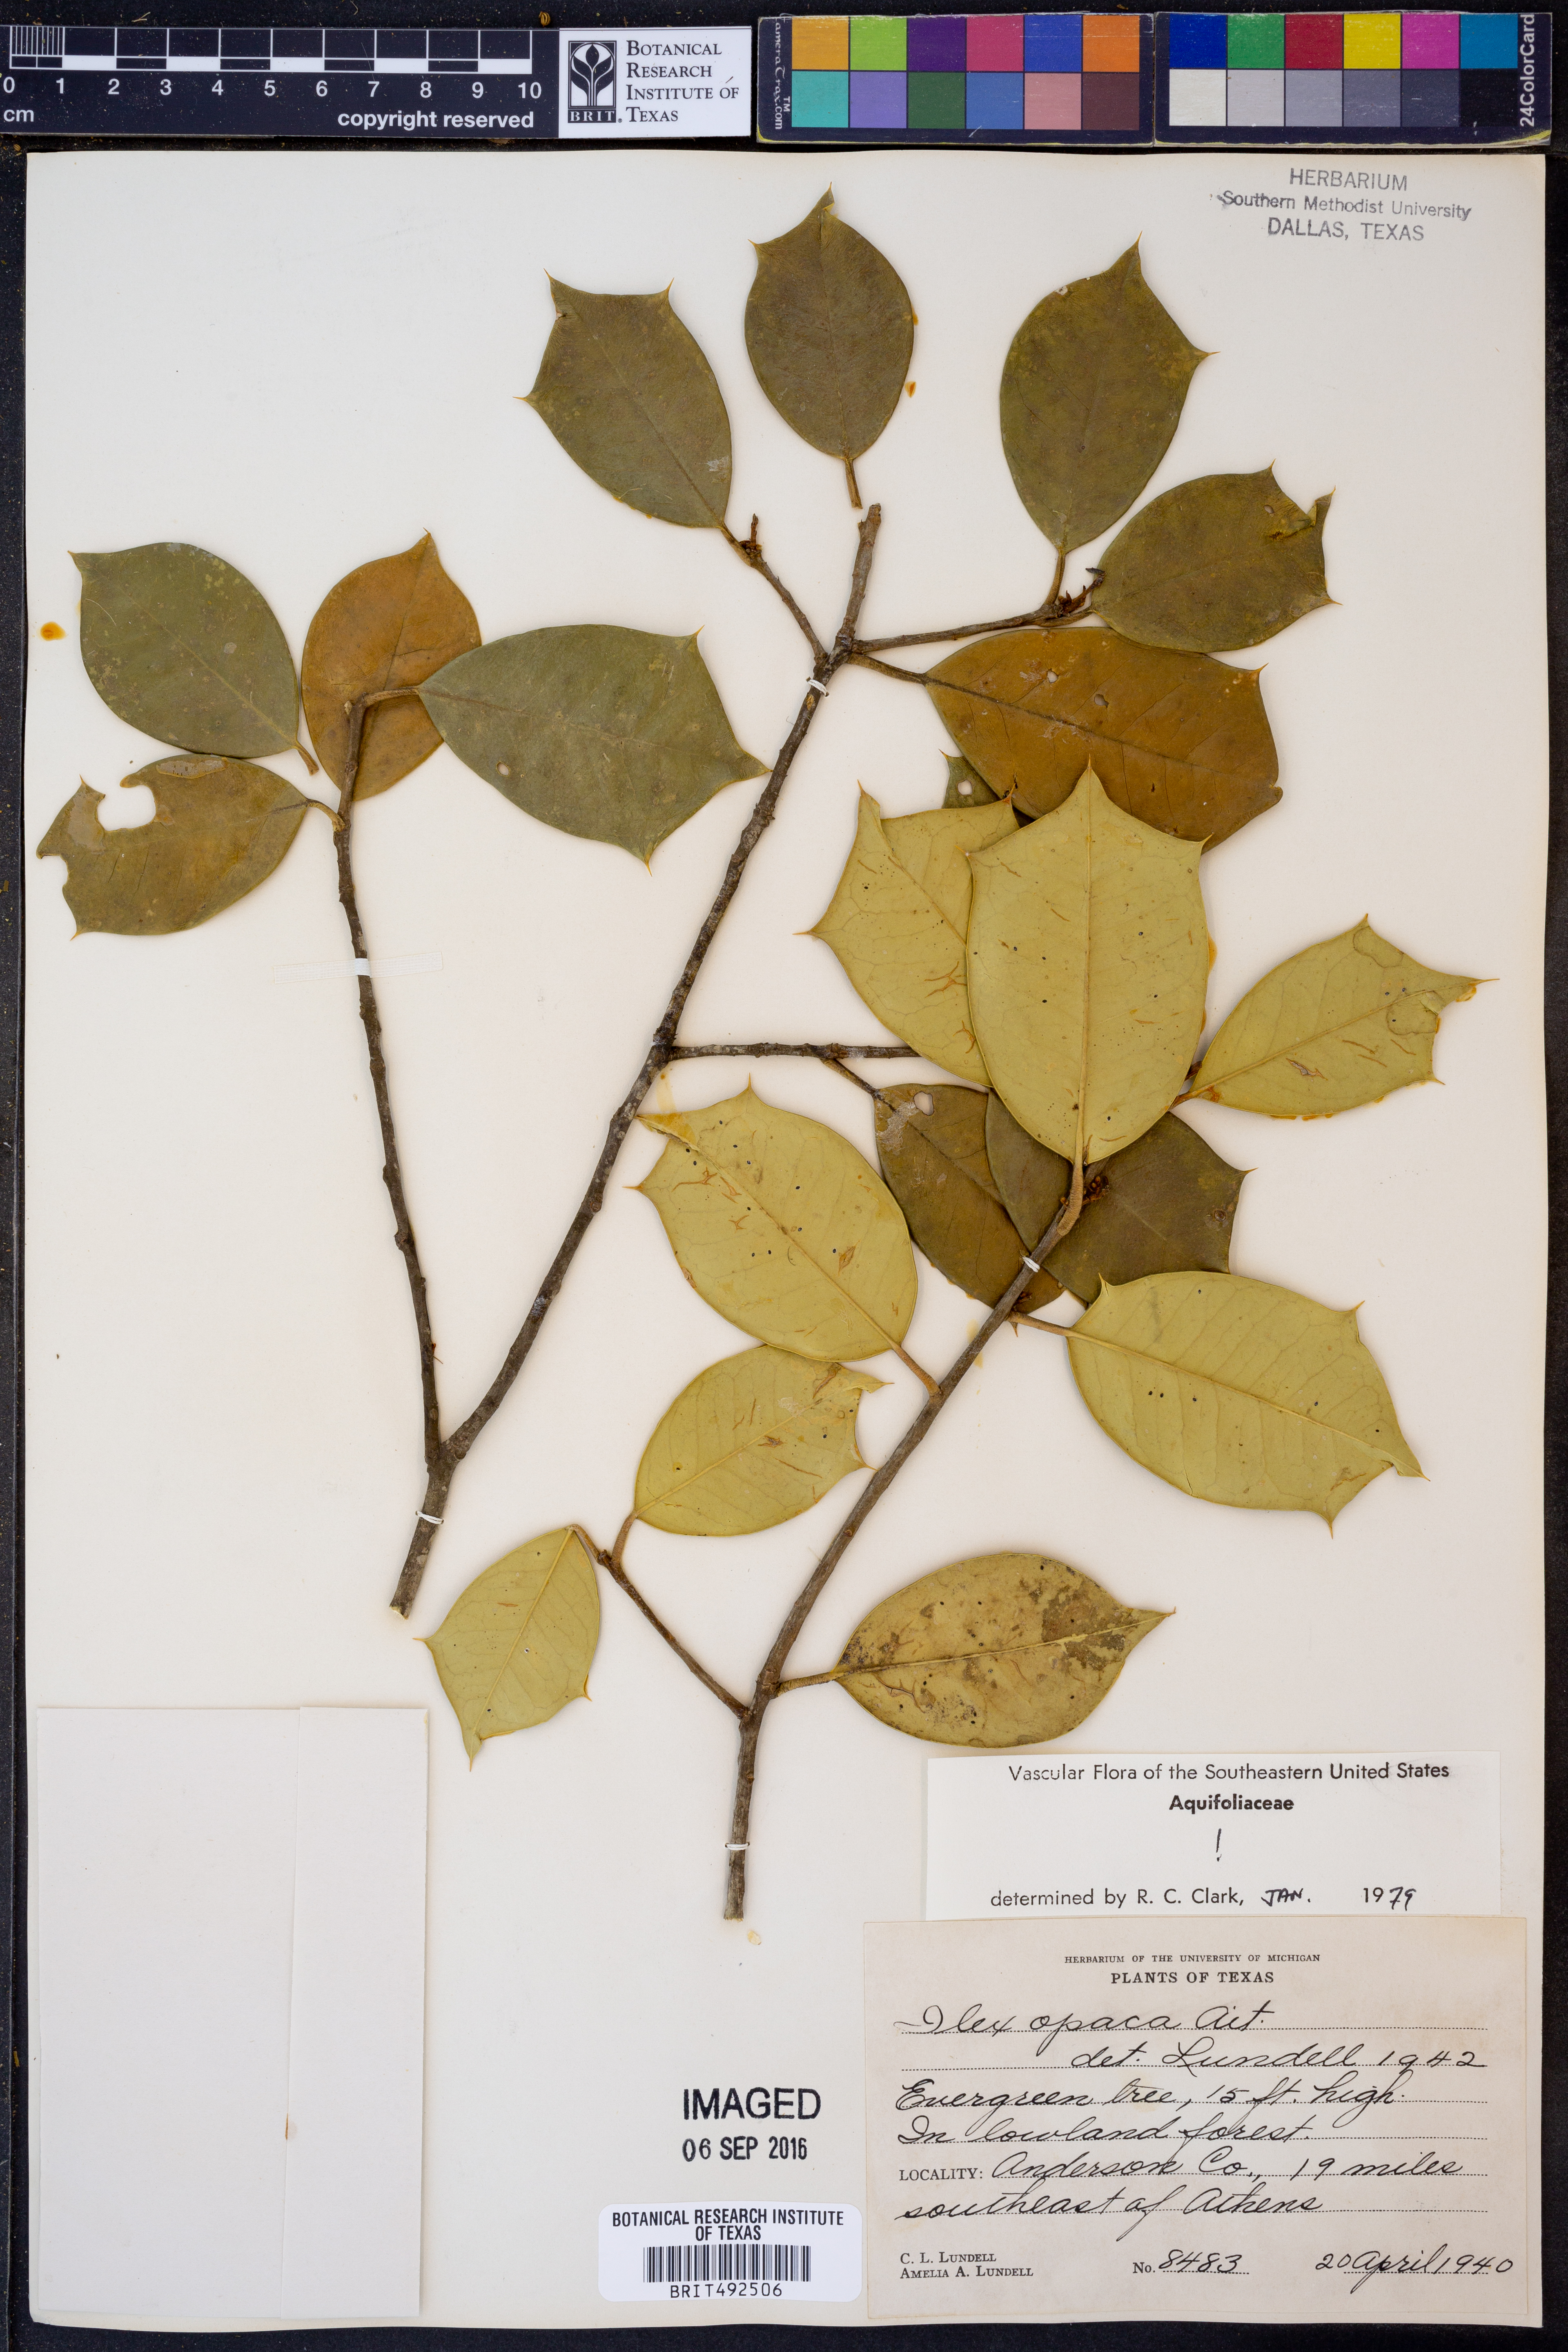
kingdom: Plantae
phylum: Tracheophyta
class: Magnoliopsida
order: Aquifoliales
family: Aquifoliaceae
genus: Ilex
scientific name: Ilex opaca
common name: American holly
